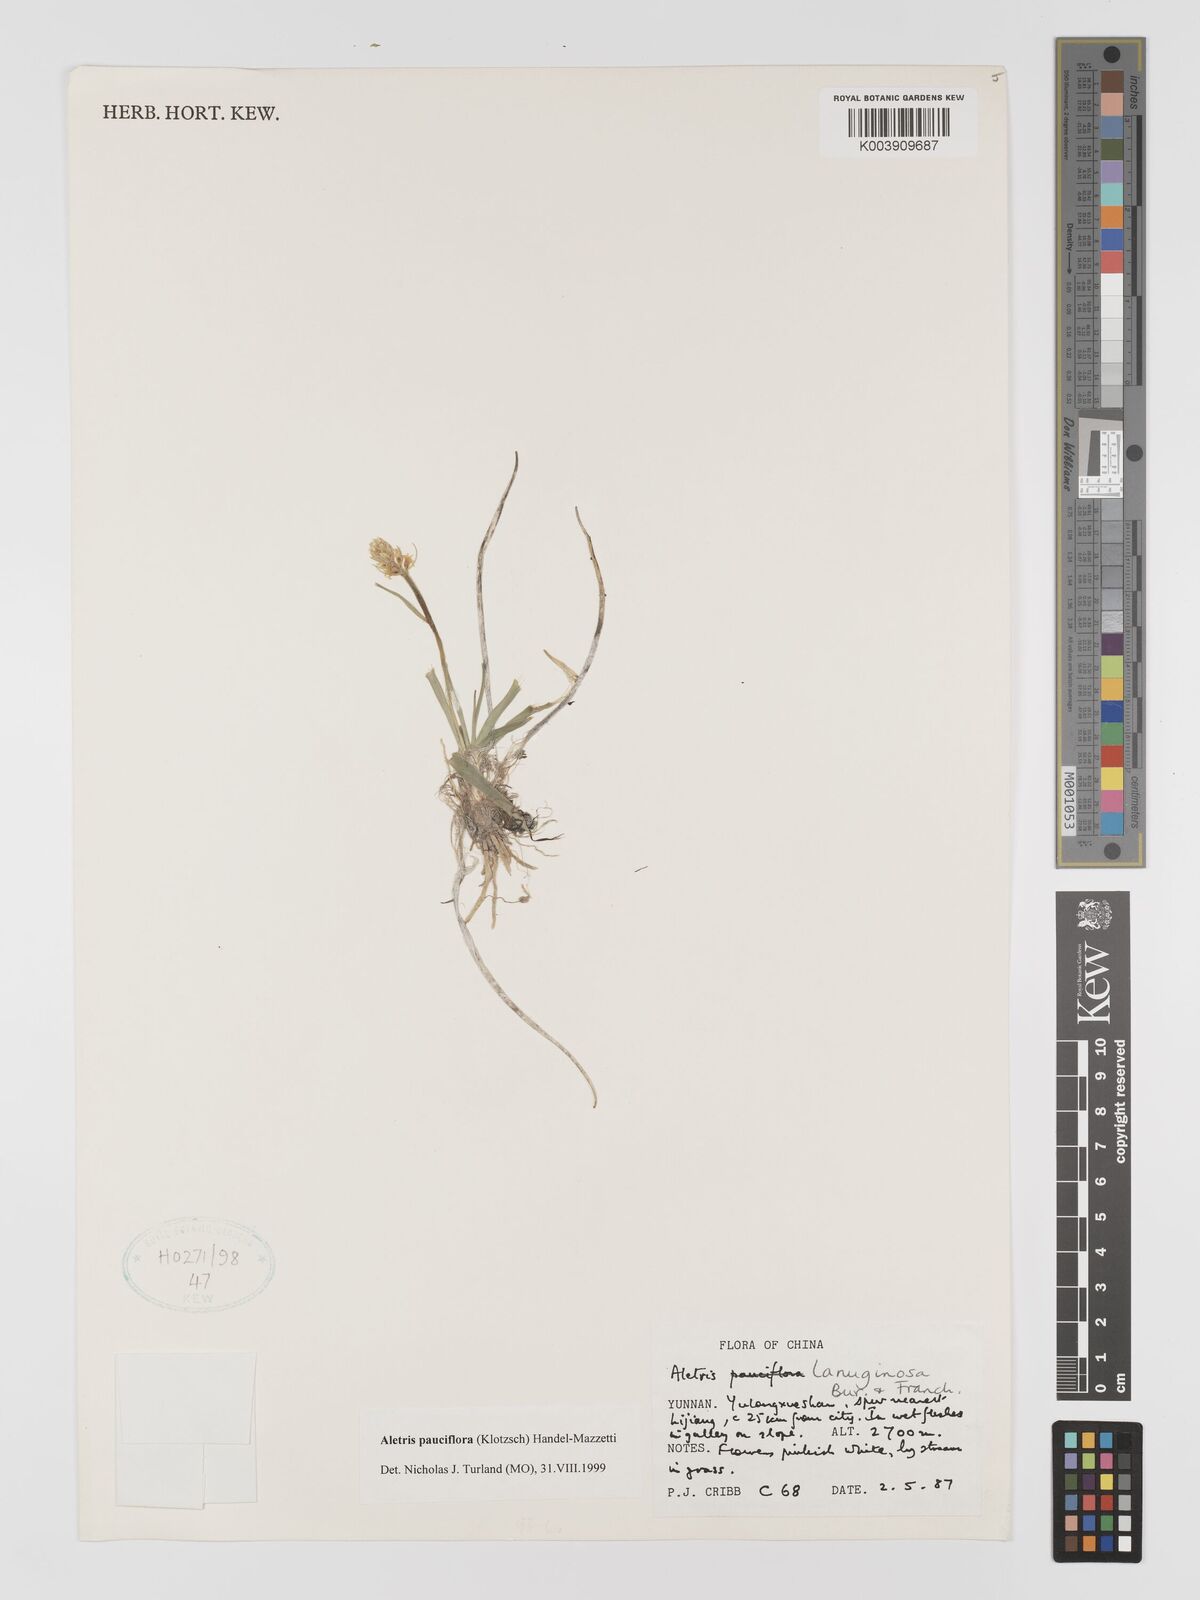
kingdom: Plantae
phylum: Tracheophyta
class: Liliopsida
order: Dioscoreales
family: Nartheciaceae
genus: Aletris
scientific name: Aletris pauciflora
